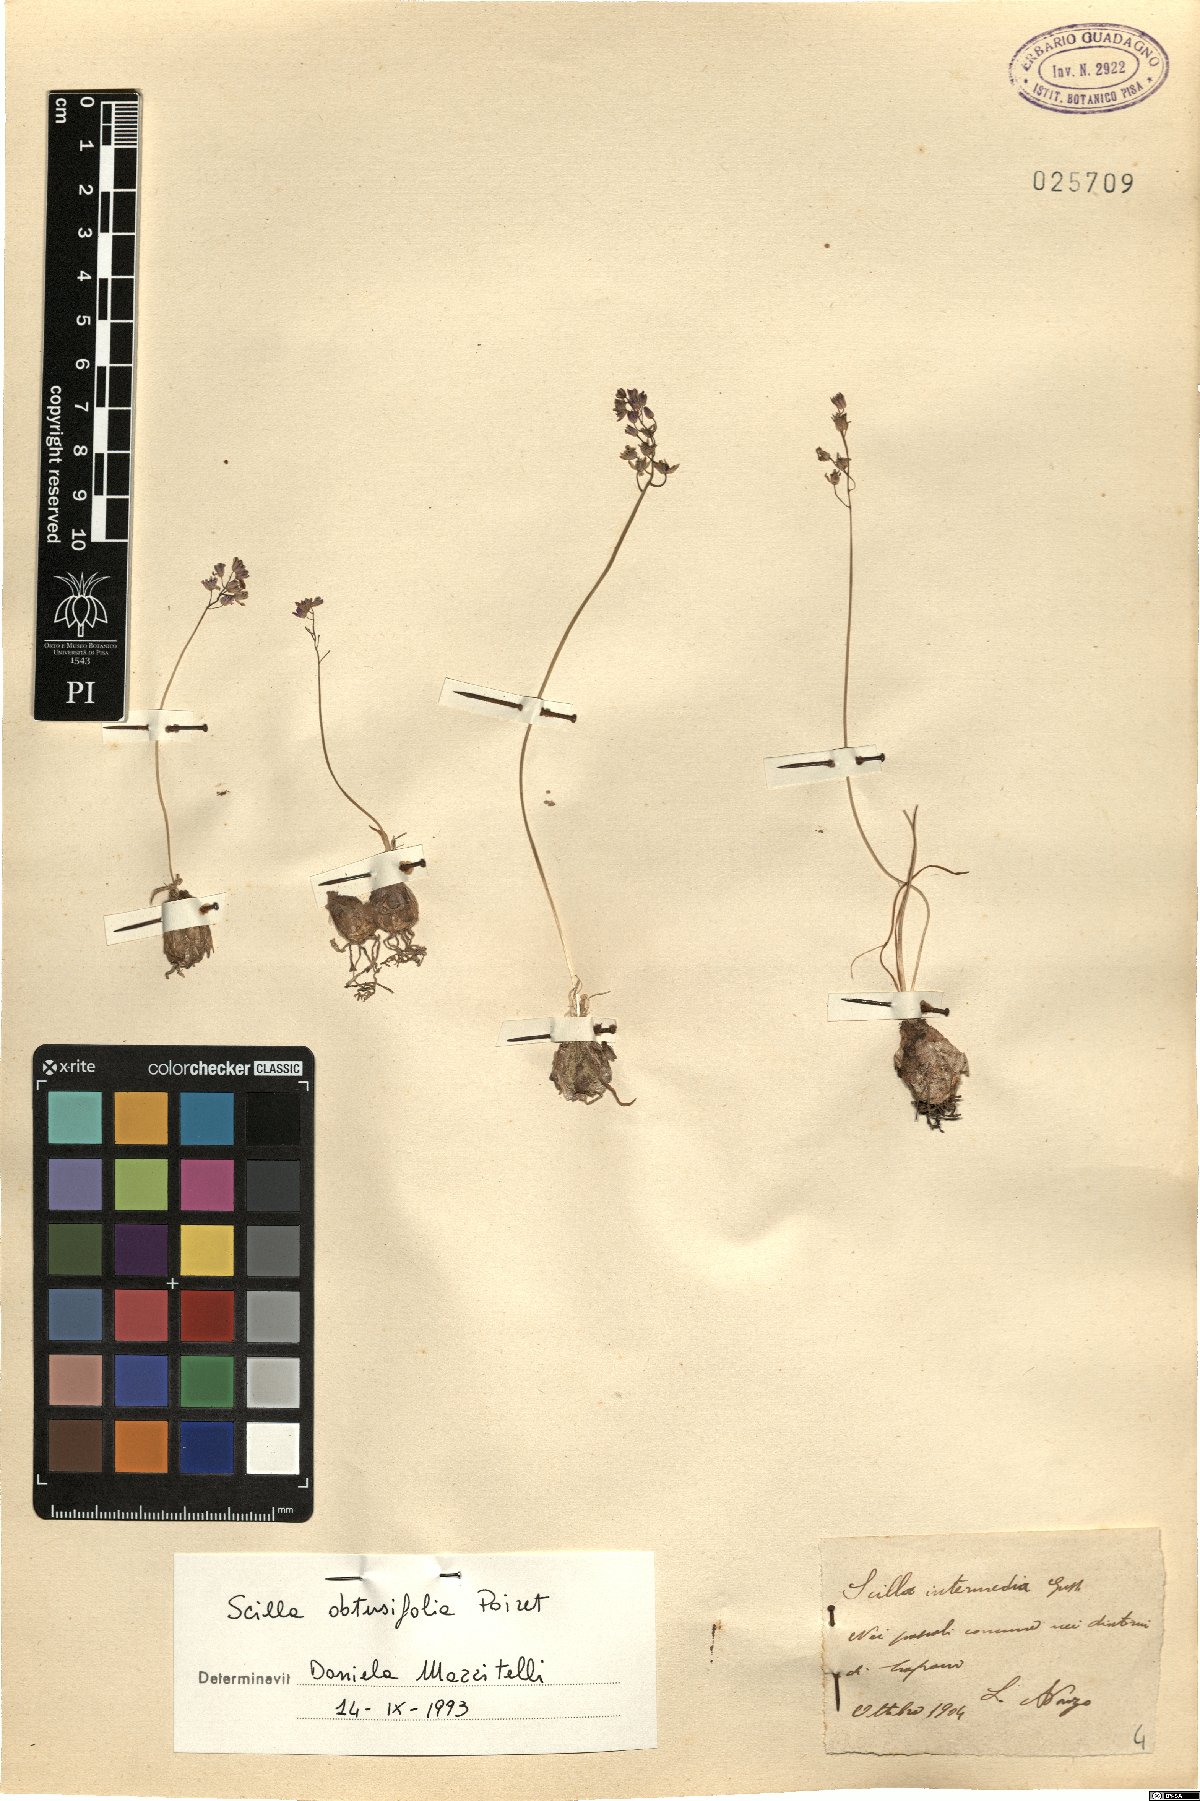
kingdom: Plantae
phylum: Tracheophyta
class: Liliopsida
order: Asparagales
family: Asparagaceae
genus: Prospero
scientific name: Prospero obtusifolium
